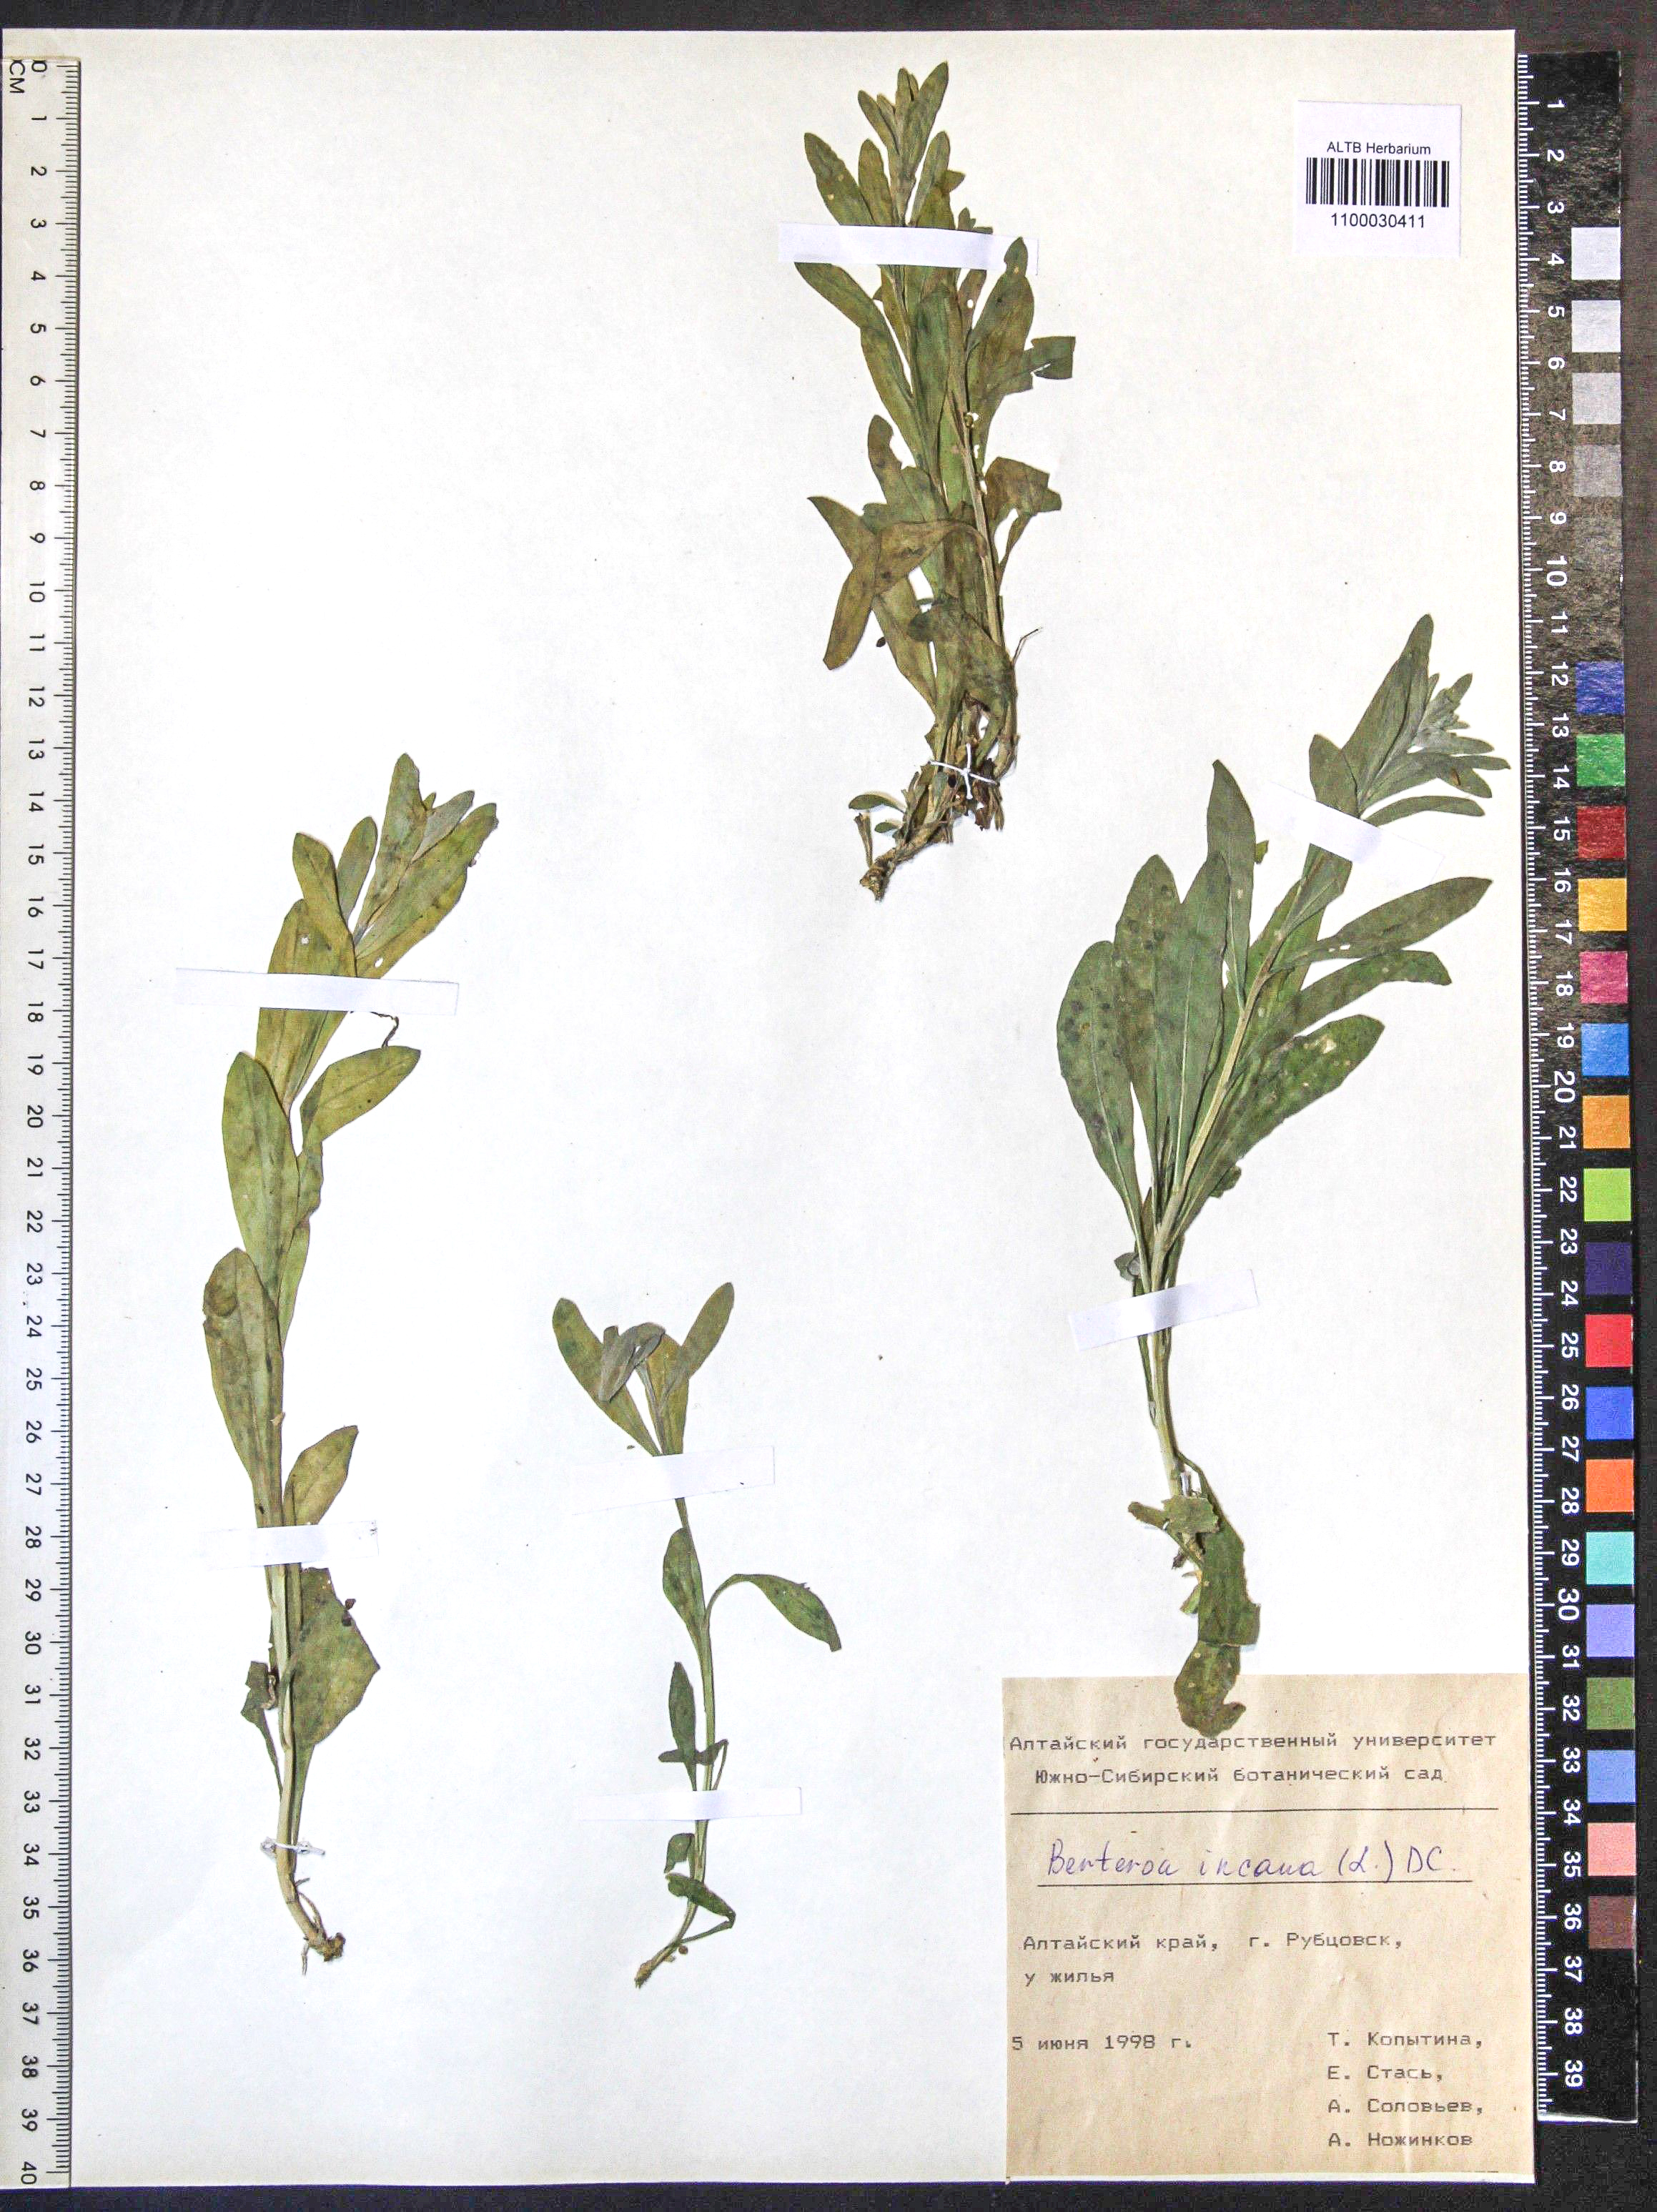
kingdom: Plantae
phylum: Tracheophyta
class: Magnoliopsida
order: Brassicales
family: Brassicaceae
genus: Berteroa
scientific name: Berteroa incana
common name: Hoary alison
